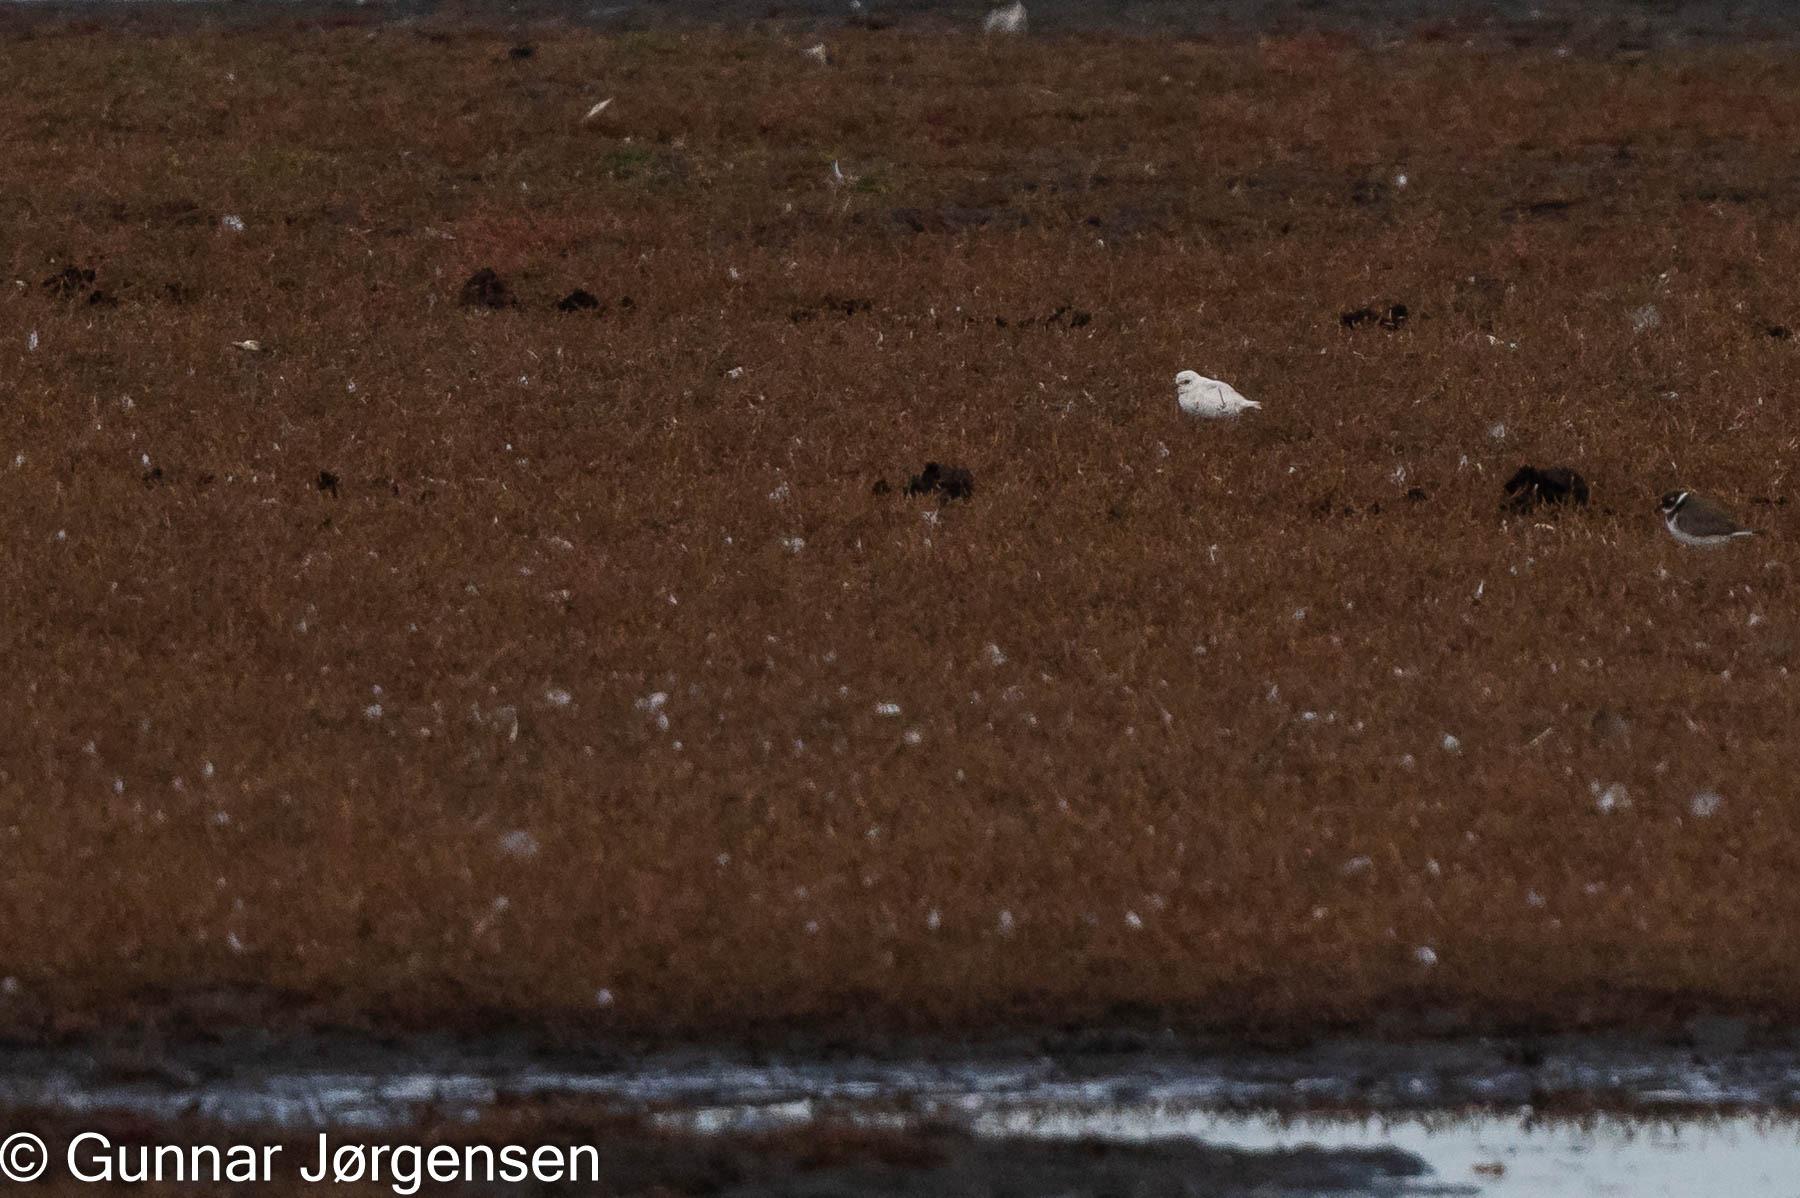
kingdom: Animalia
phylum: Chordata
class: Aves
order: Charadriiformes
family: Charadriidae
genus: Charadrius
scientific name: Charadrius hiaticula
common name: Stor præstekrave
